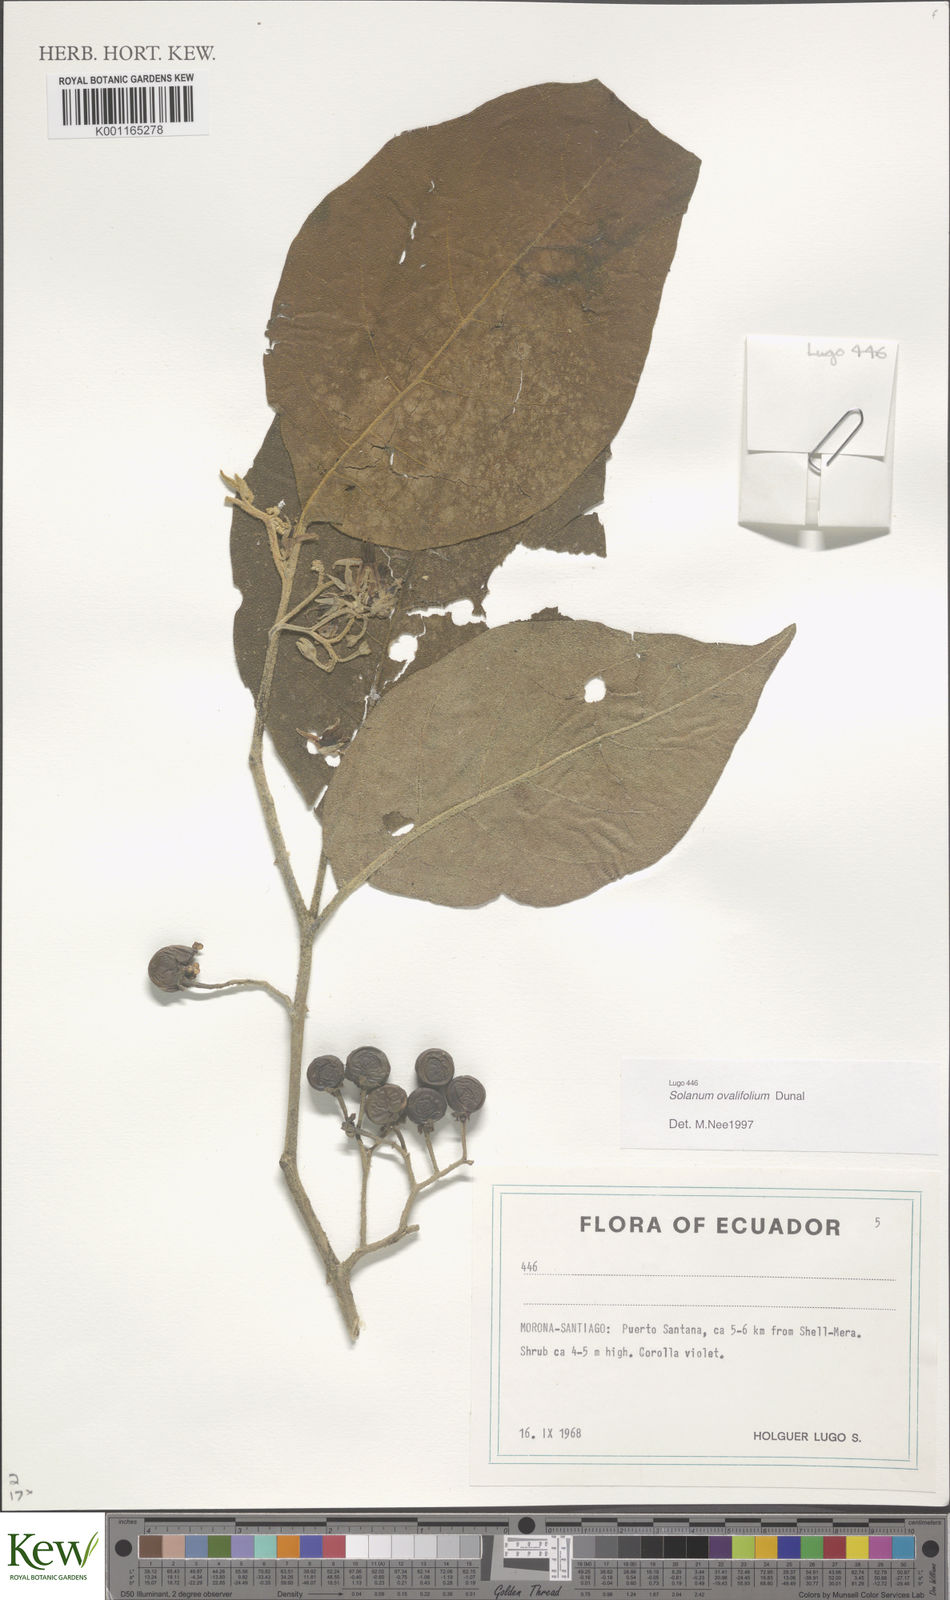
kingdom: Plantae
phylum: Tracheophyta
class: Magnoliopsida
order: Solanales
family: Solanaceae
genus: Solanum
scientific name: Solanum ovalifolium
